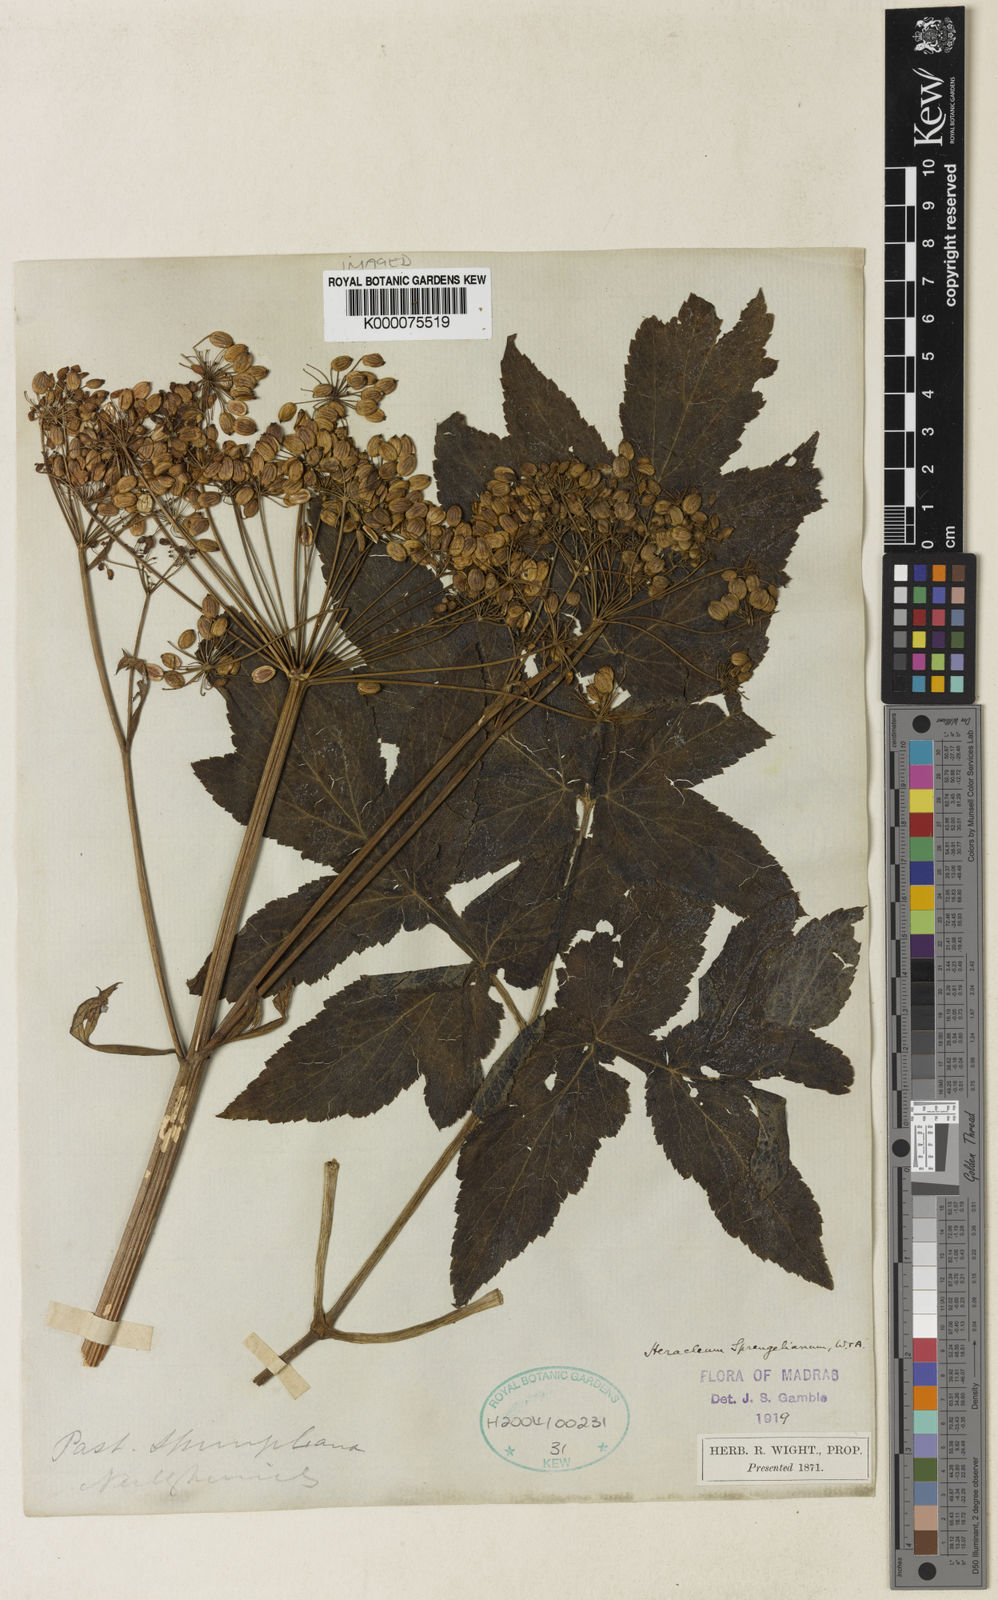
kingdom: Plantae
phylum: Tracheophyta
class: Magnoliopsida
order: Apiales
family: Apiaceae
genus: Tetrataenium
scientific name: Tetrataenium sprengelianum
